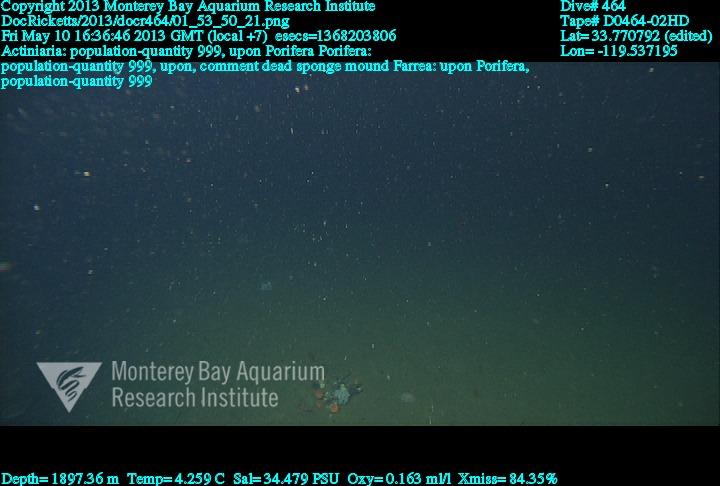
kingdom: Animalia
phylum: Porifera
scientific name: Porifera
